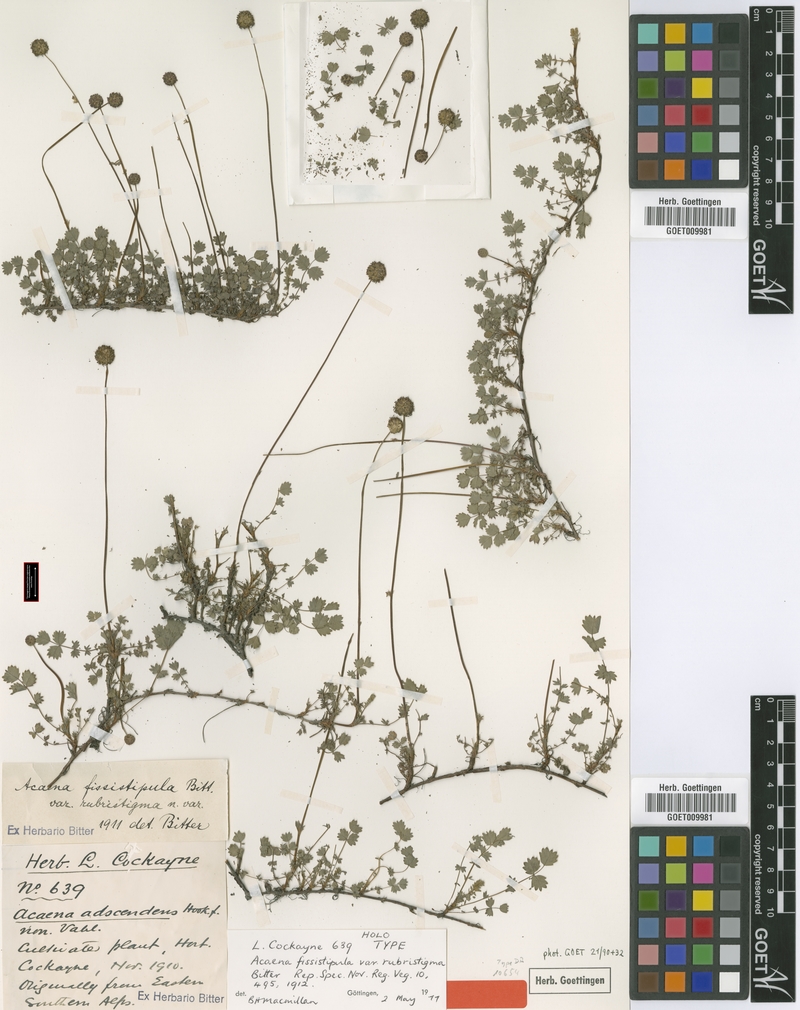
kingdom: Plantae
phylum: Tracheophyta
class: Magnoliopsida
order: Rosales
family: Rosaceae
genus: Acaena
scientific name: Acaena fissistipula
